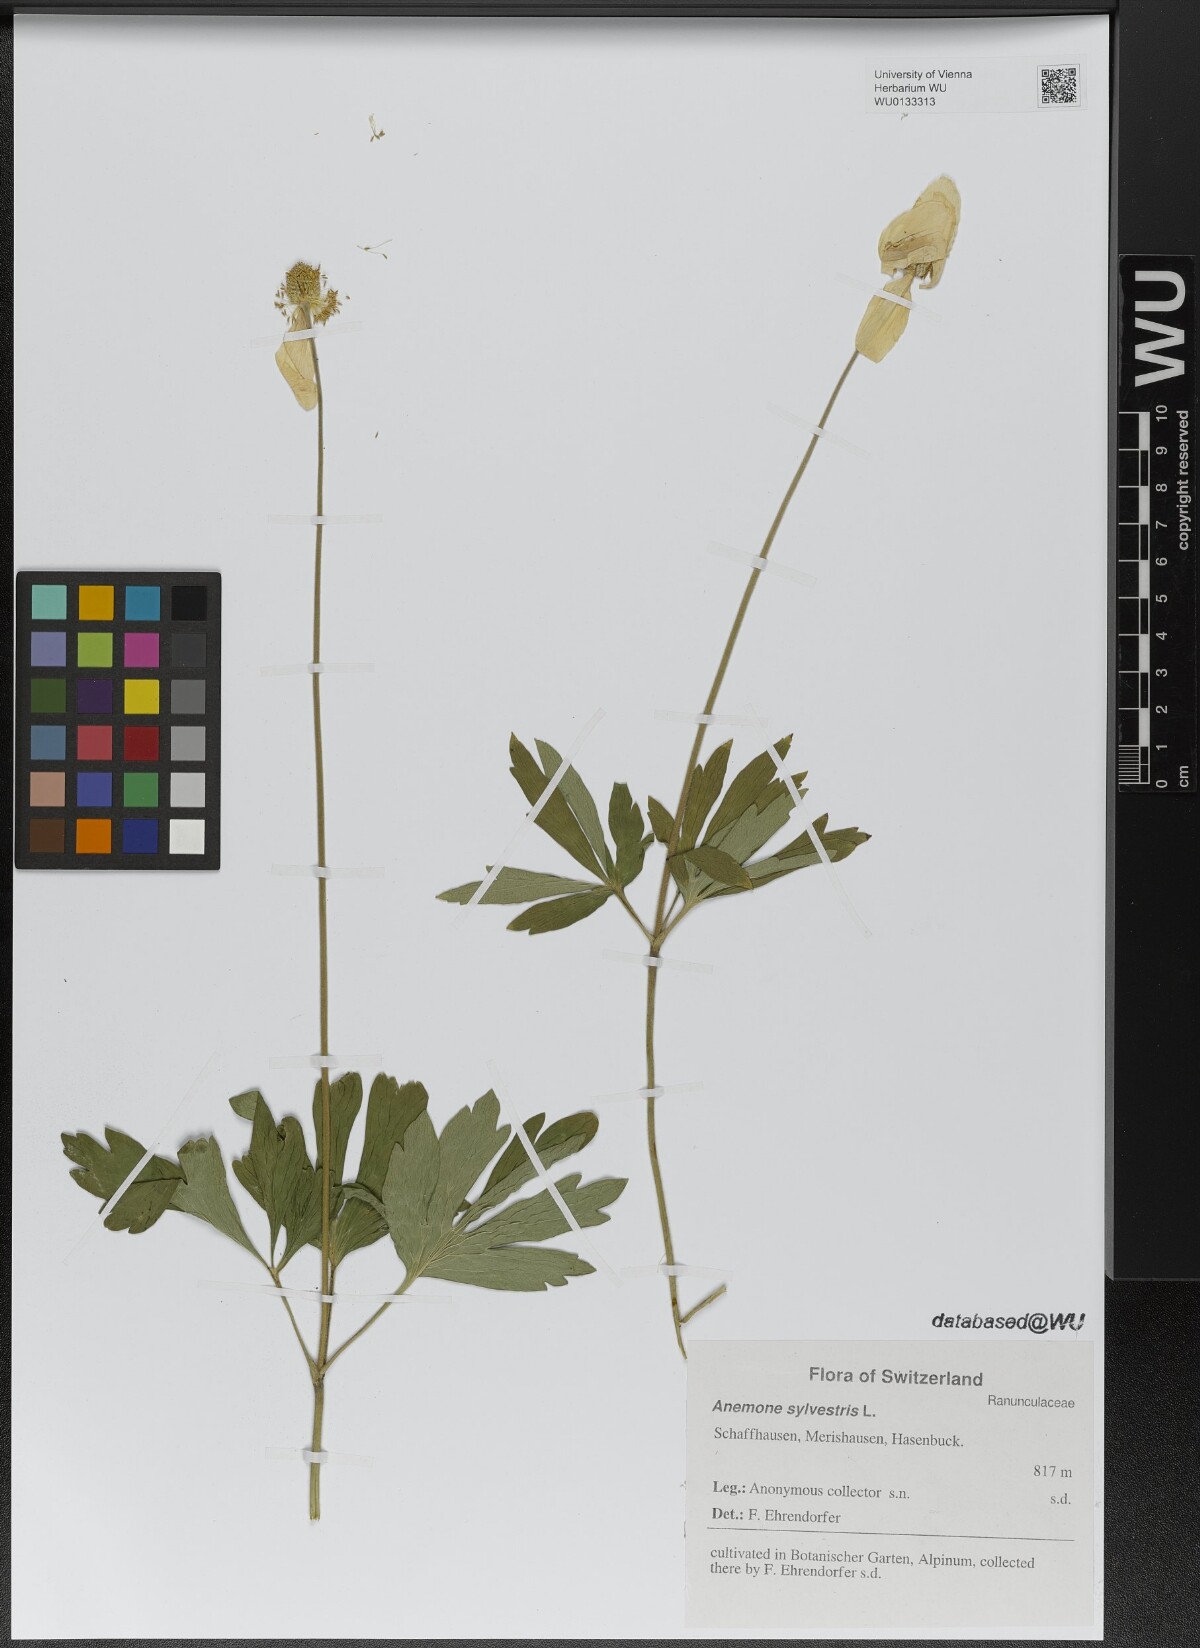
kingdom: Plantae
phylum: Tracheophyta
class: Magnoliopsida
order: Ranunculales
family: Ranunculaceae
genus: Anemone
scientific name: Anemone sylvestris
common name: Snowdrop anemone
